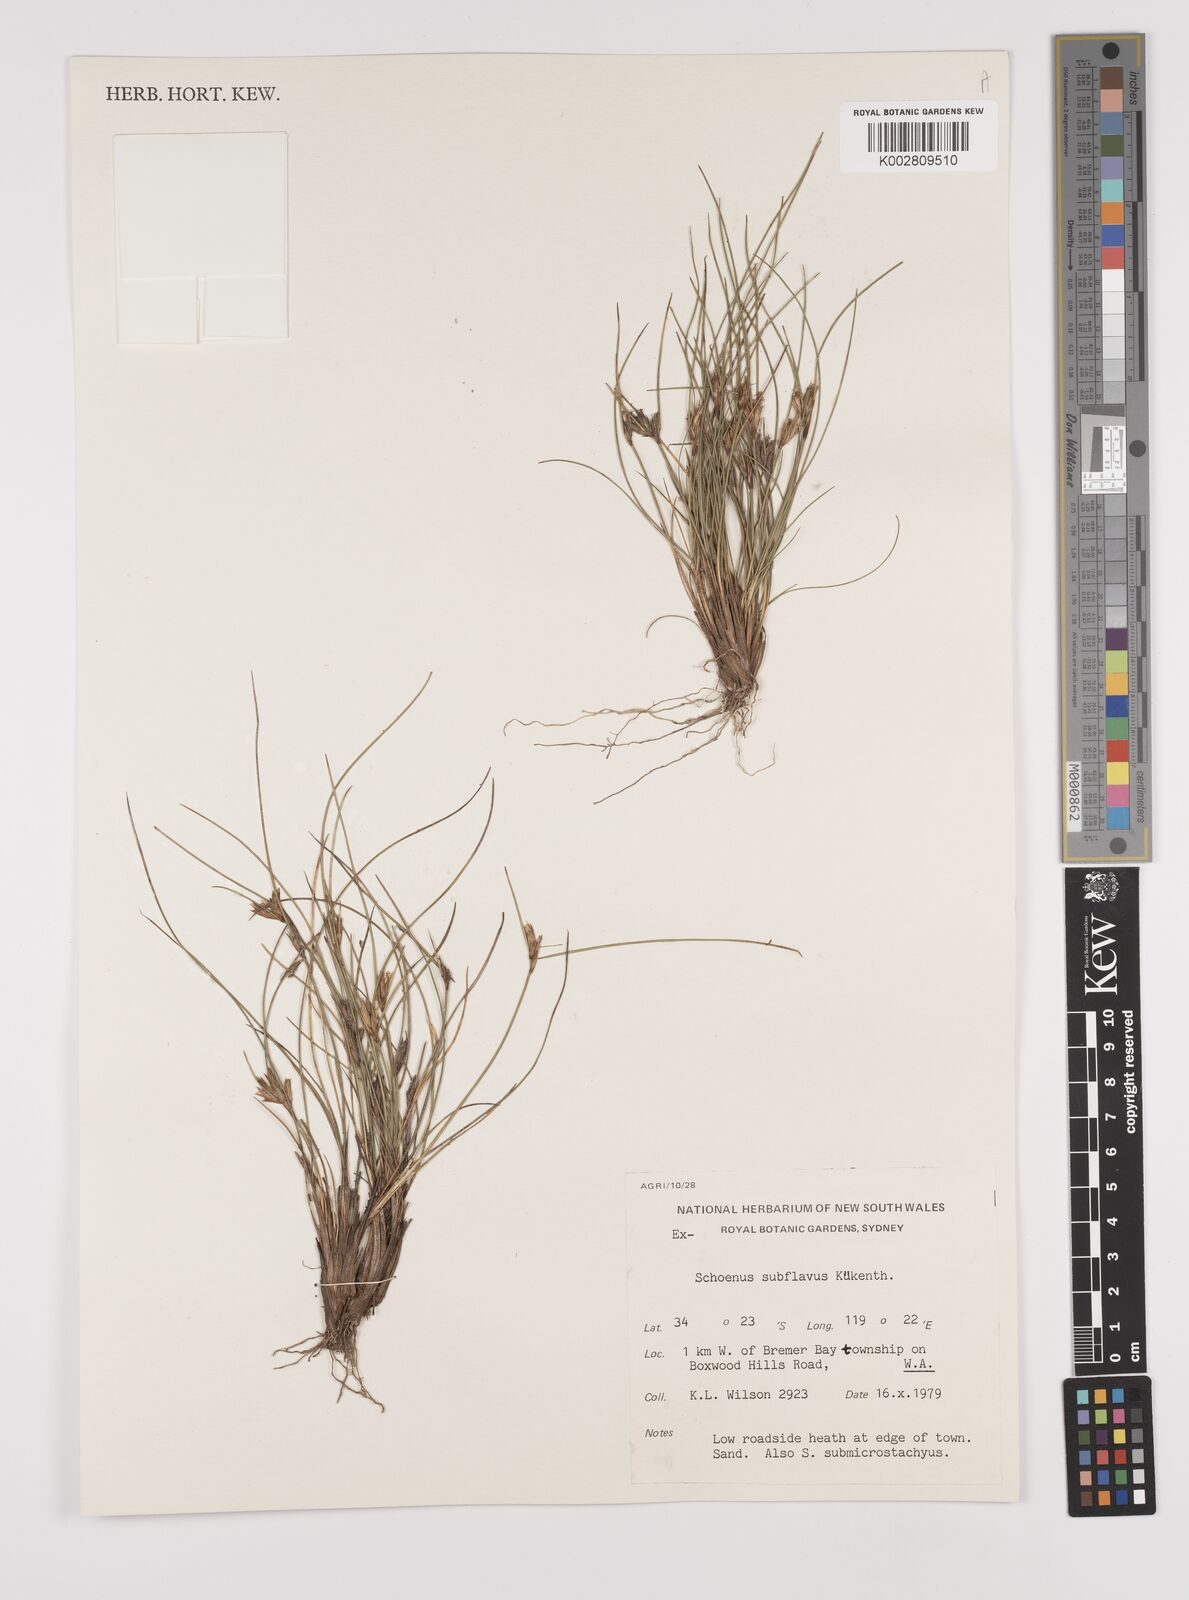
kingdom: Plantae
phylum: Tracheophyta
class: Liliopsida
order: Poales
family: Cyperaceae
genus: Schoenus
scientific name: Schoenus subflavus
